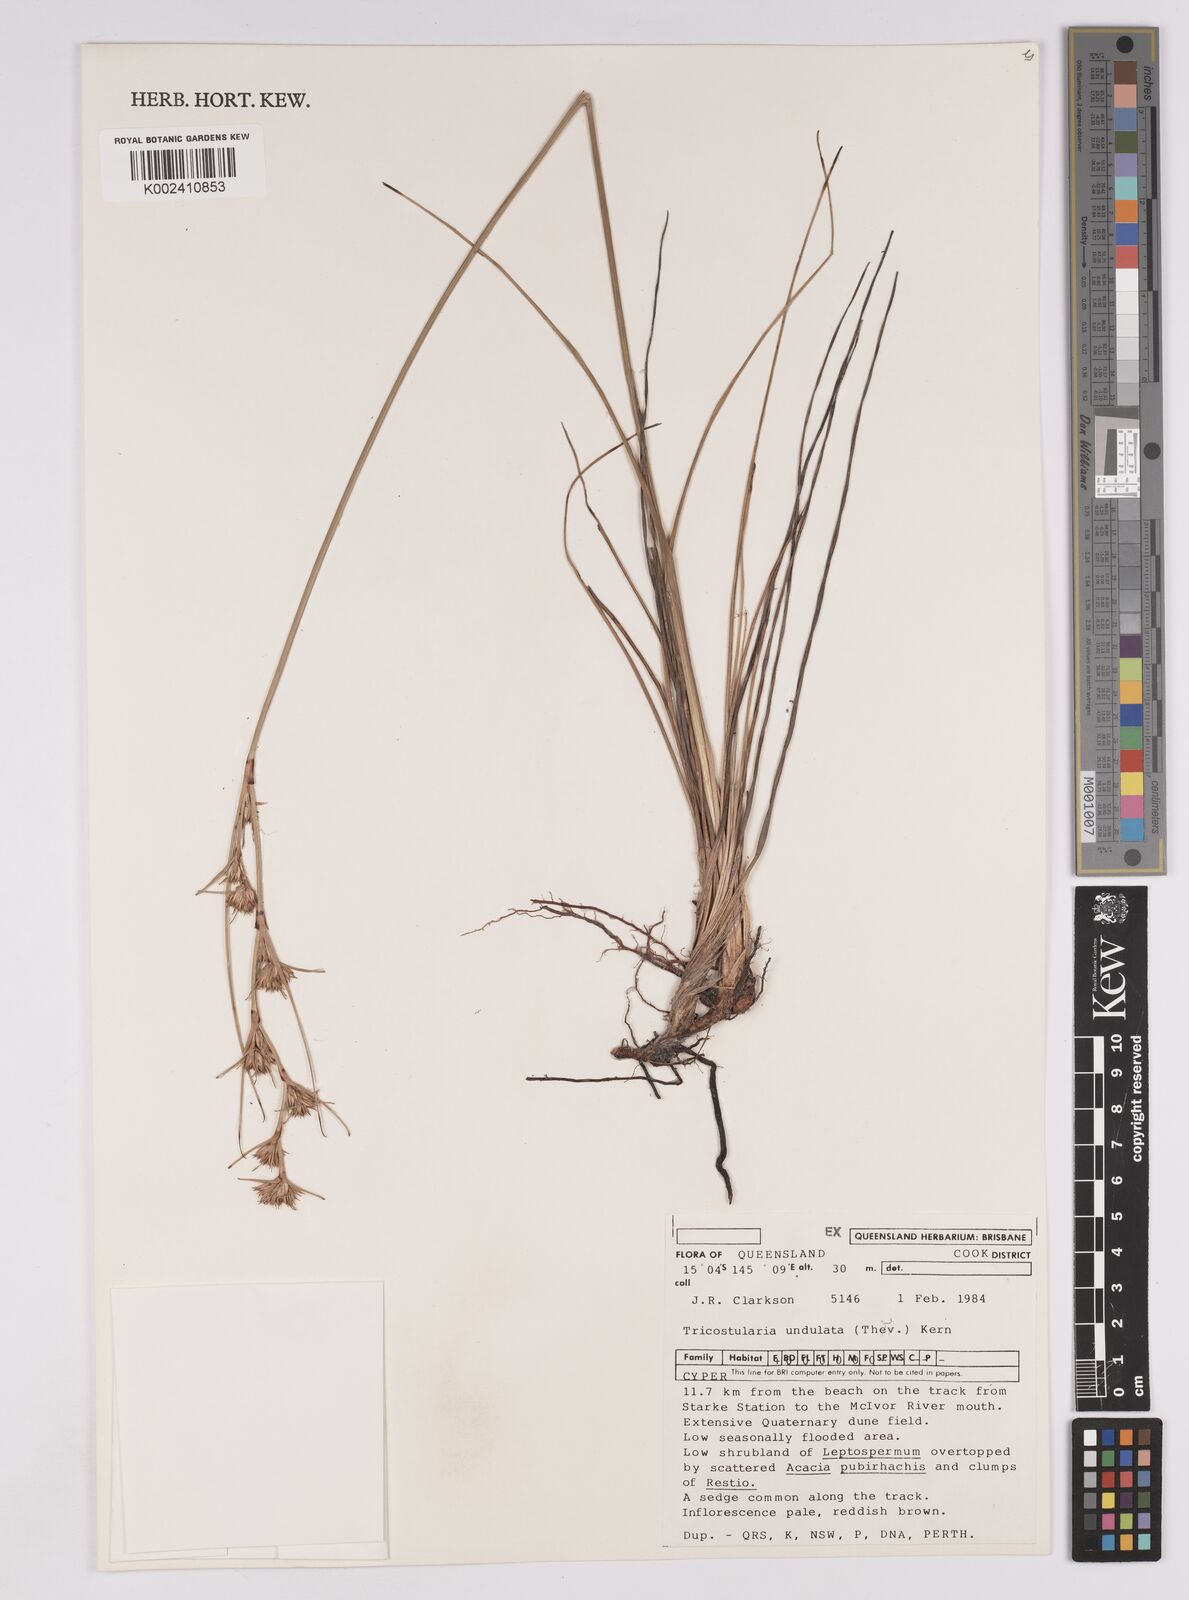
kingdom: Plantae
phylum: Tracheophyta
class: Liliopsida
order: Poales
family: Cyperaceae
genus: Anthelepis
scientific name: Anthelepis undulata
